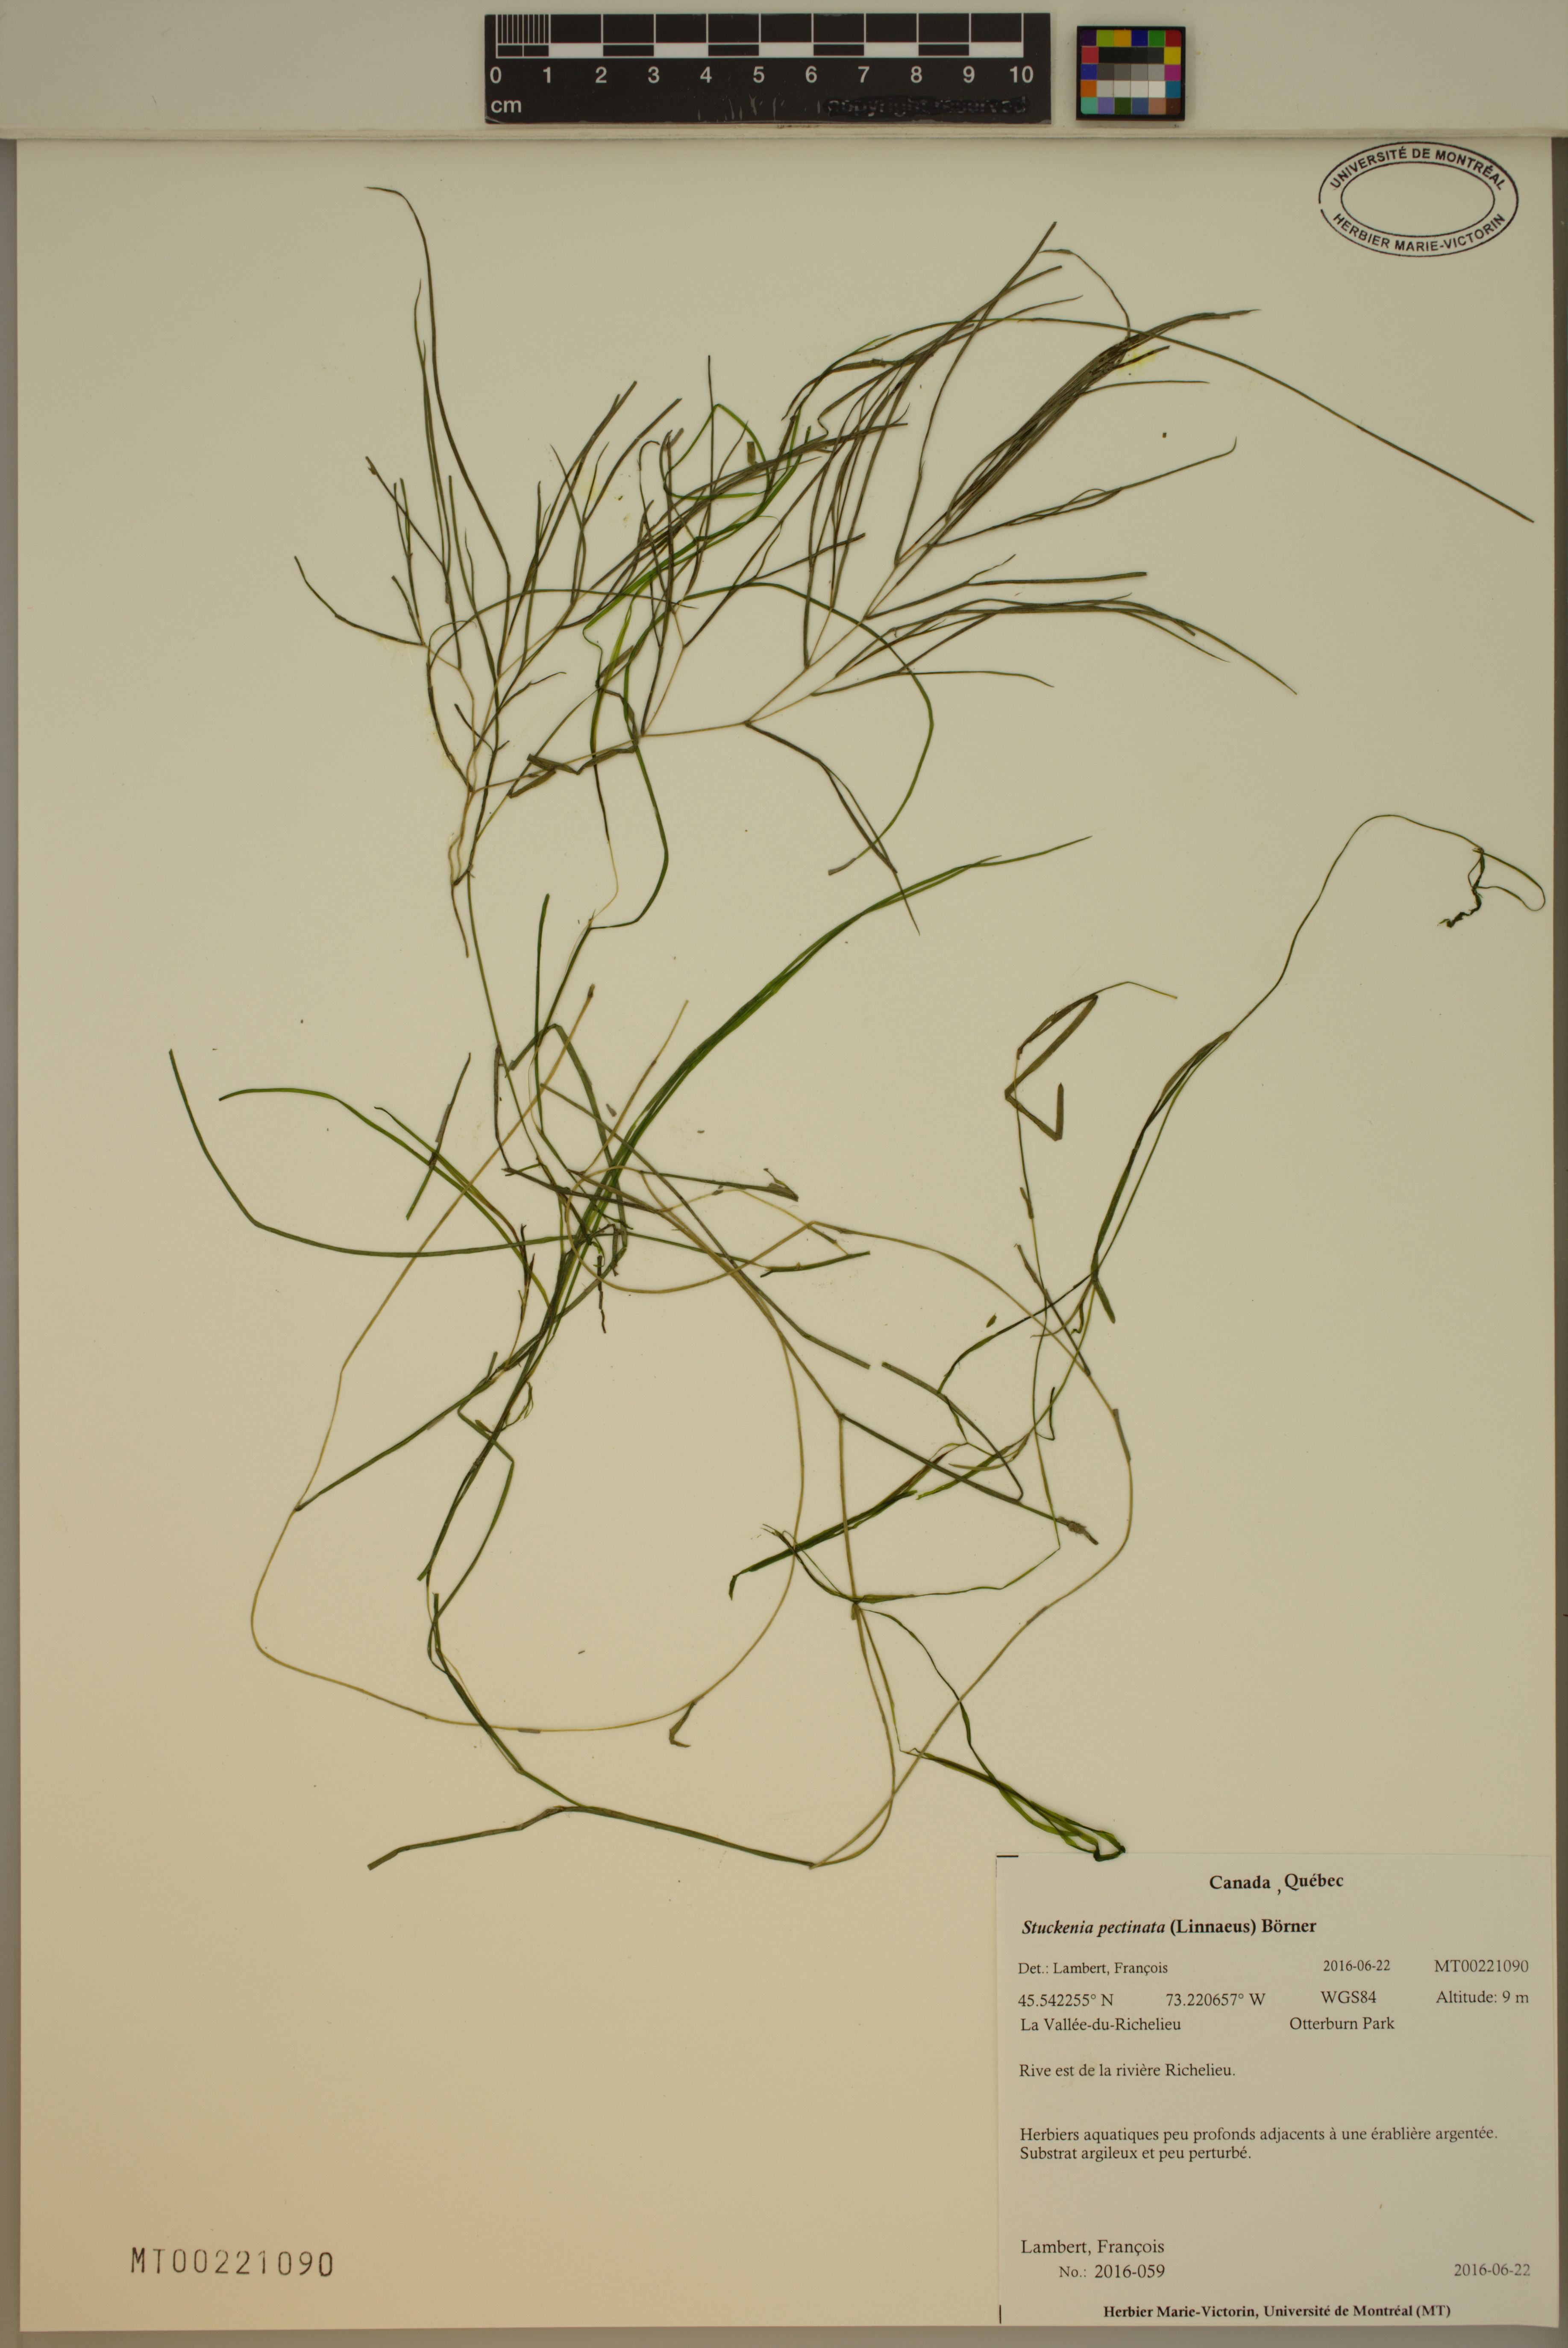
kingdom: Plantae
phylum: Tracheophyta
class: Liliopsida
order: Alismatales
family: Potamogetonaceae
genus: Stuckenia
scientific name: Stuckenia pectinata
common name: Sago pondweed
